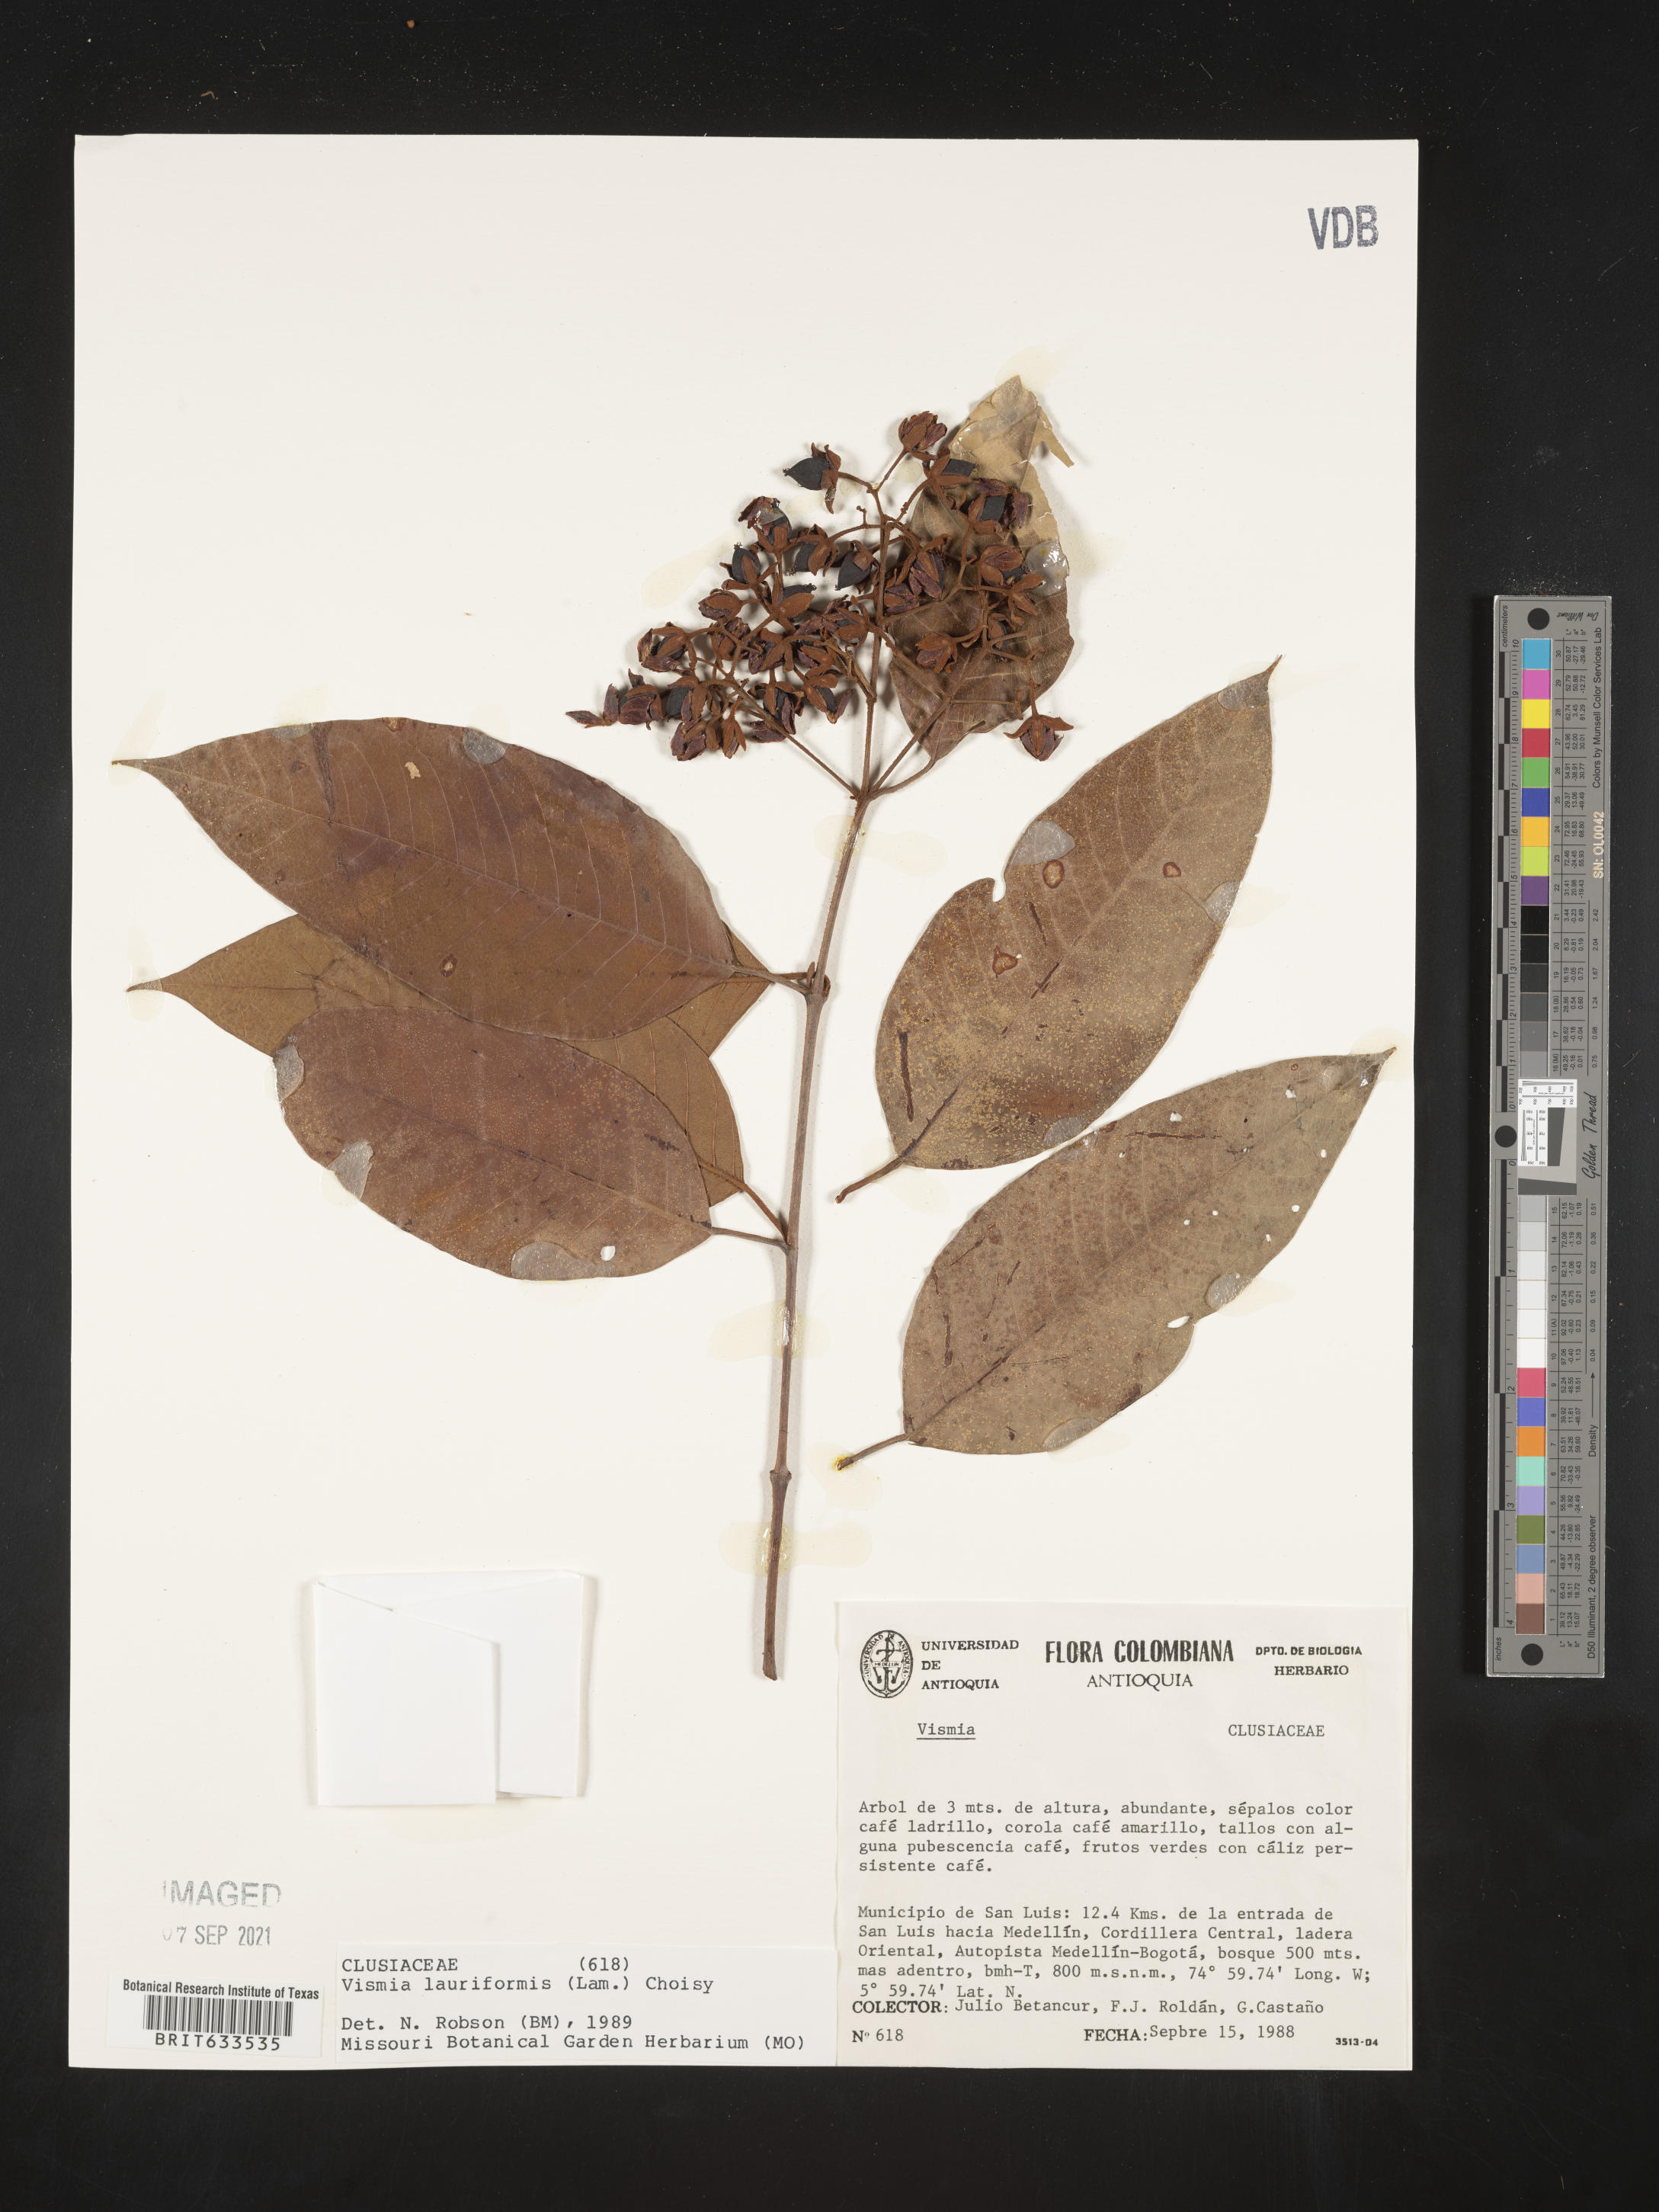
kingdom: Plantae
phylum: Tracheophyta
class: Magnoliopsida
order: Malpighiales
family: Hypericaceae
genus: Vismia
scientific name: Vismia
